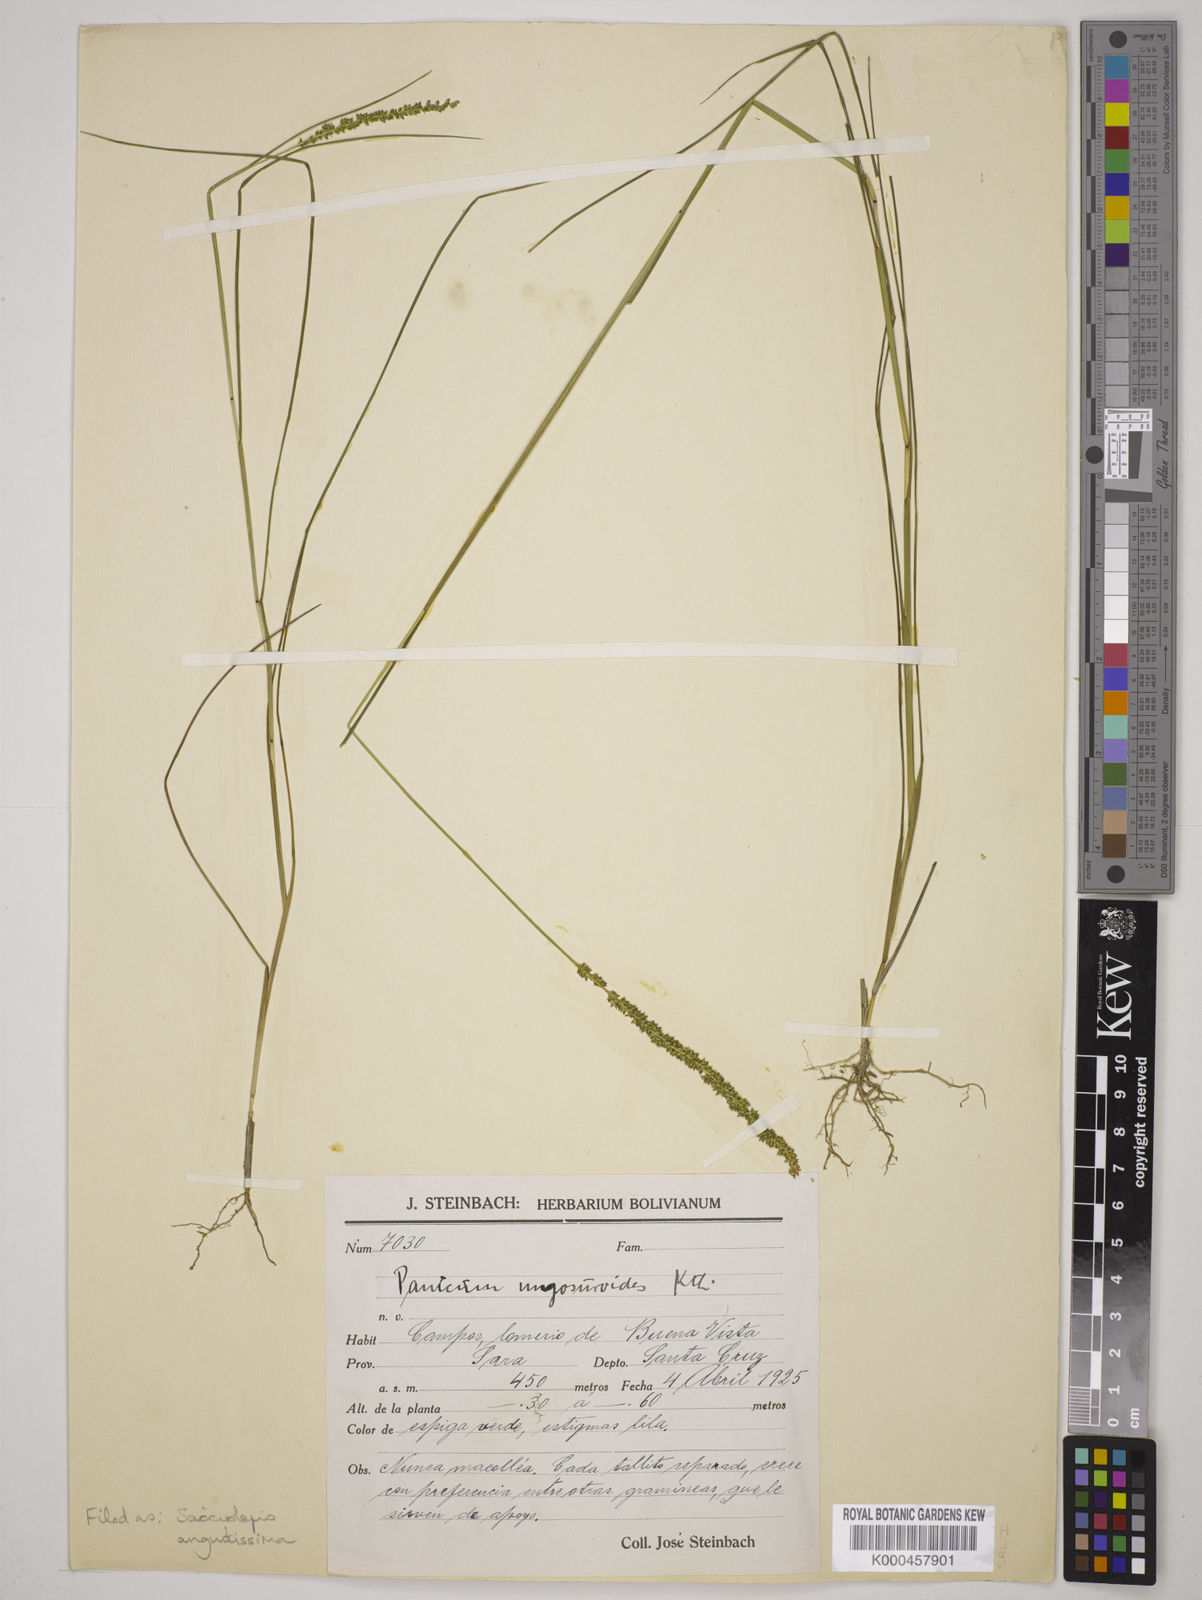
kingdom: Plantae
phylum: Tracheophyta
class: Liliopsida
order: Poales
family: Poaceae
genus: Sacciolepis
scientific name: Sacciolepis angustissima
